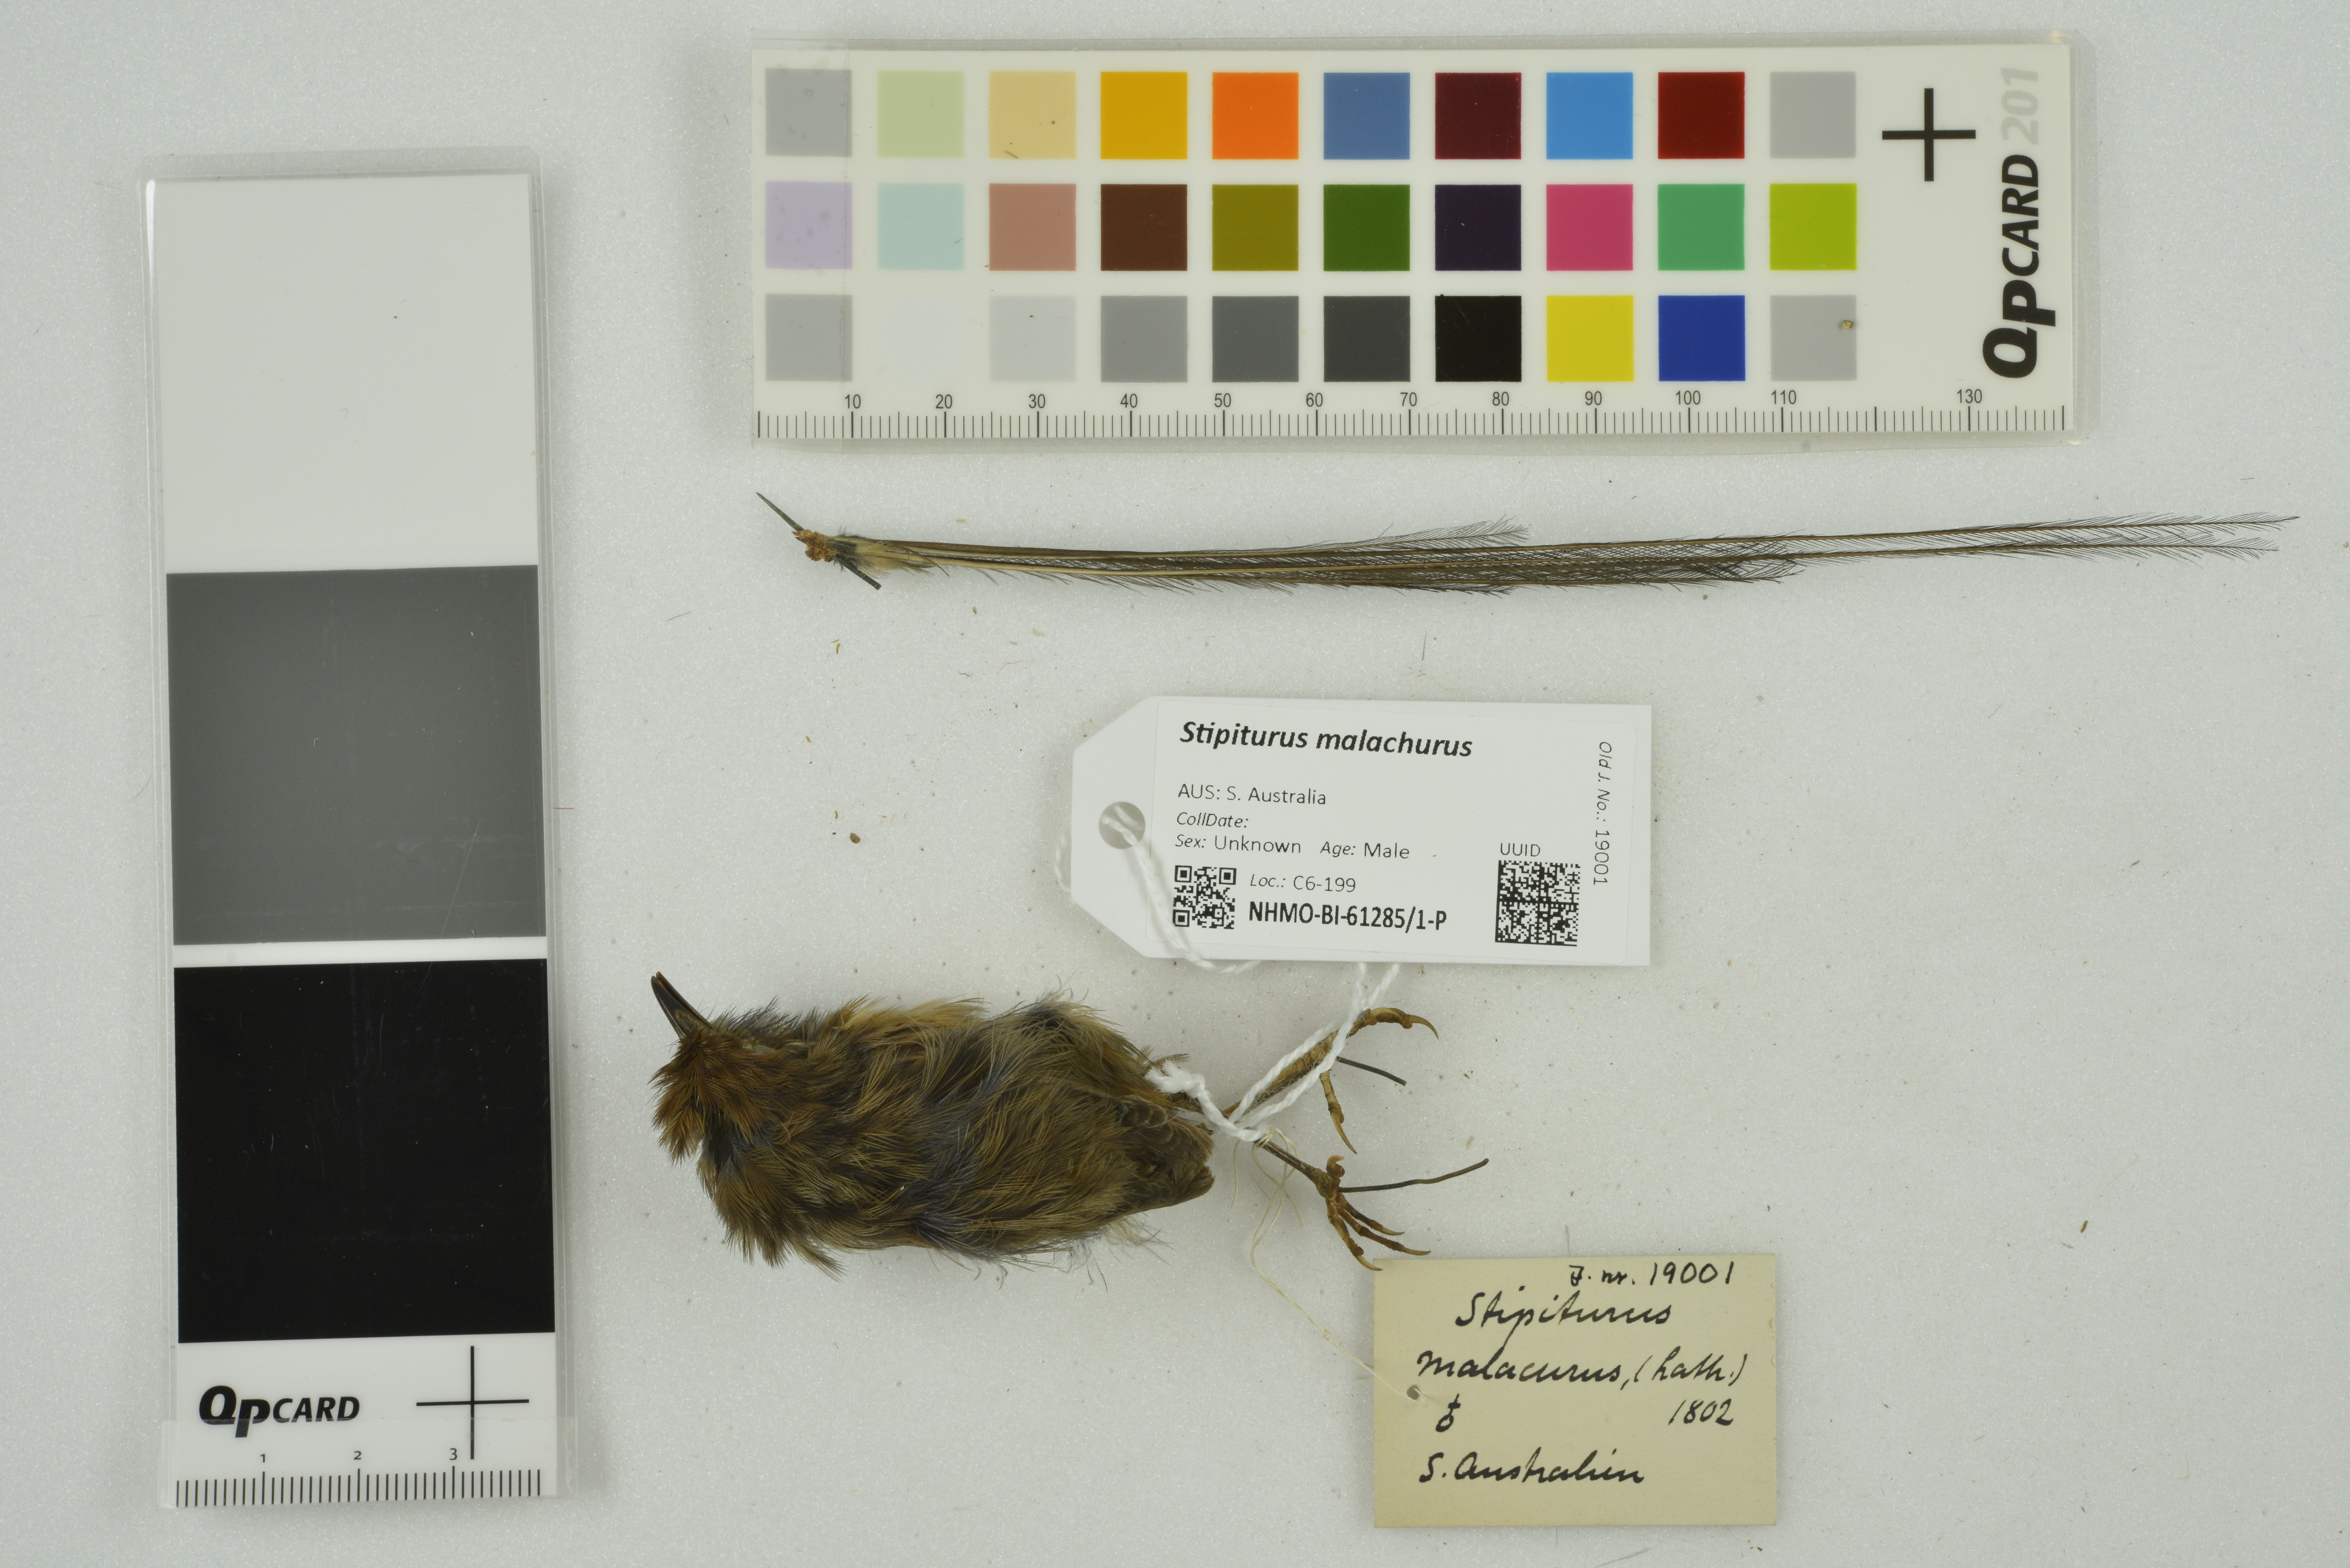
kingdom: Animalia
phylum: Chordata
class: Aves
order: Passeriformes
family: Maluridae
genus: Stipiturus
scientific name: Stipiturus malachurus
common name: Southern emu-wren
